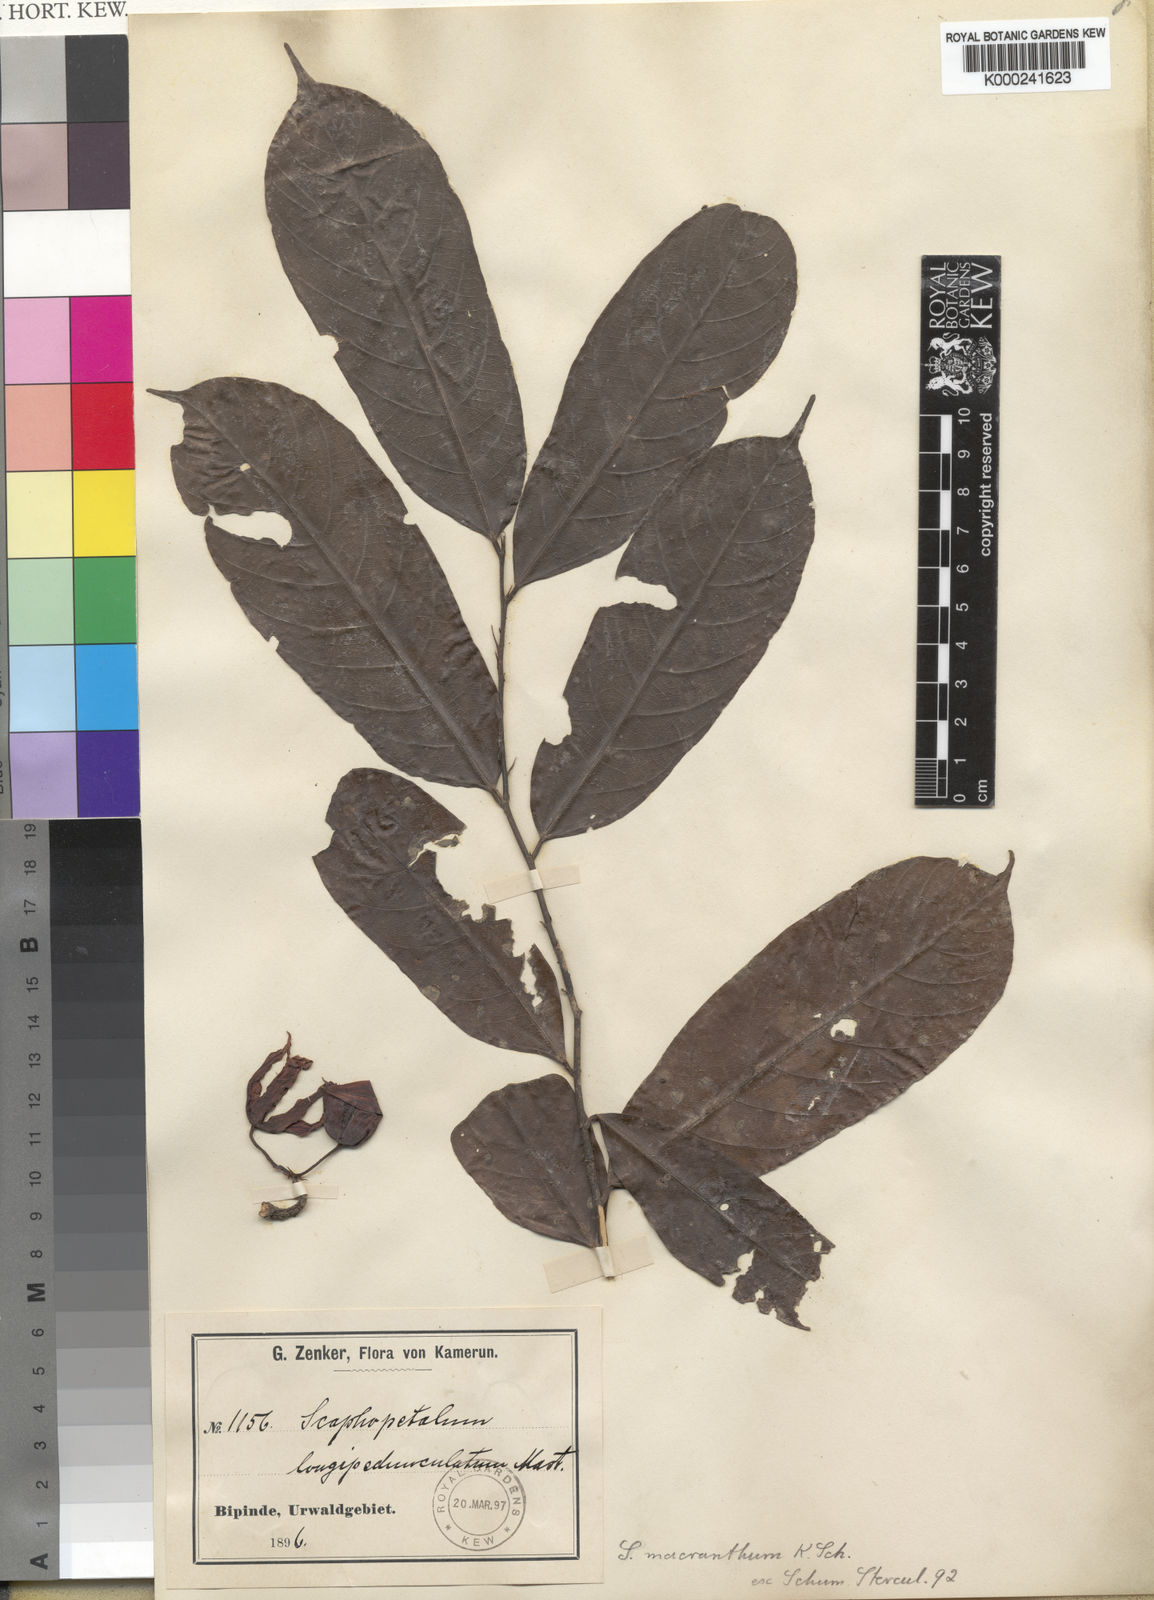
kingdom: Plantae
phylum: Tracheophyta
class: Magnoliopsida
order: Malvales
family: Malvaceae
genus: Scaphopetalum
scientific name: Scaphopetalum macranthum
